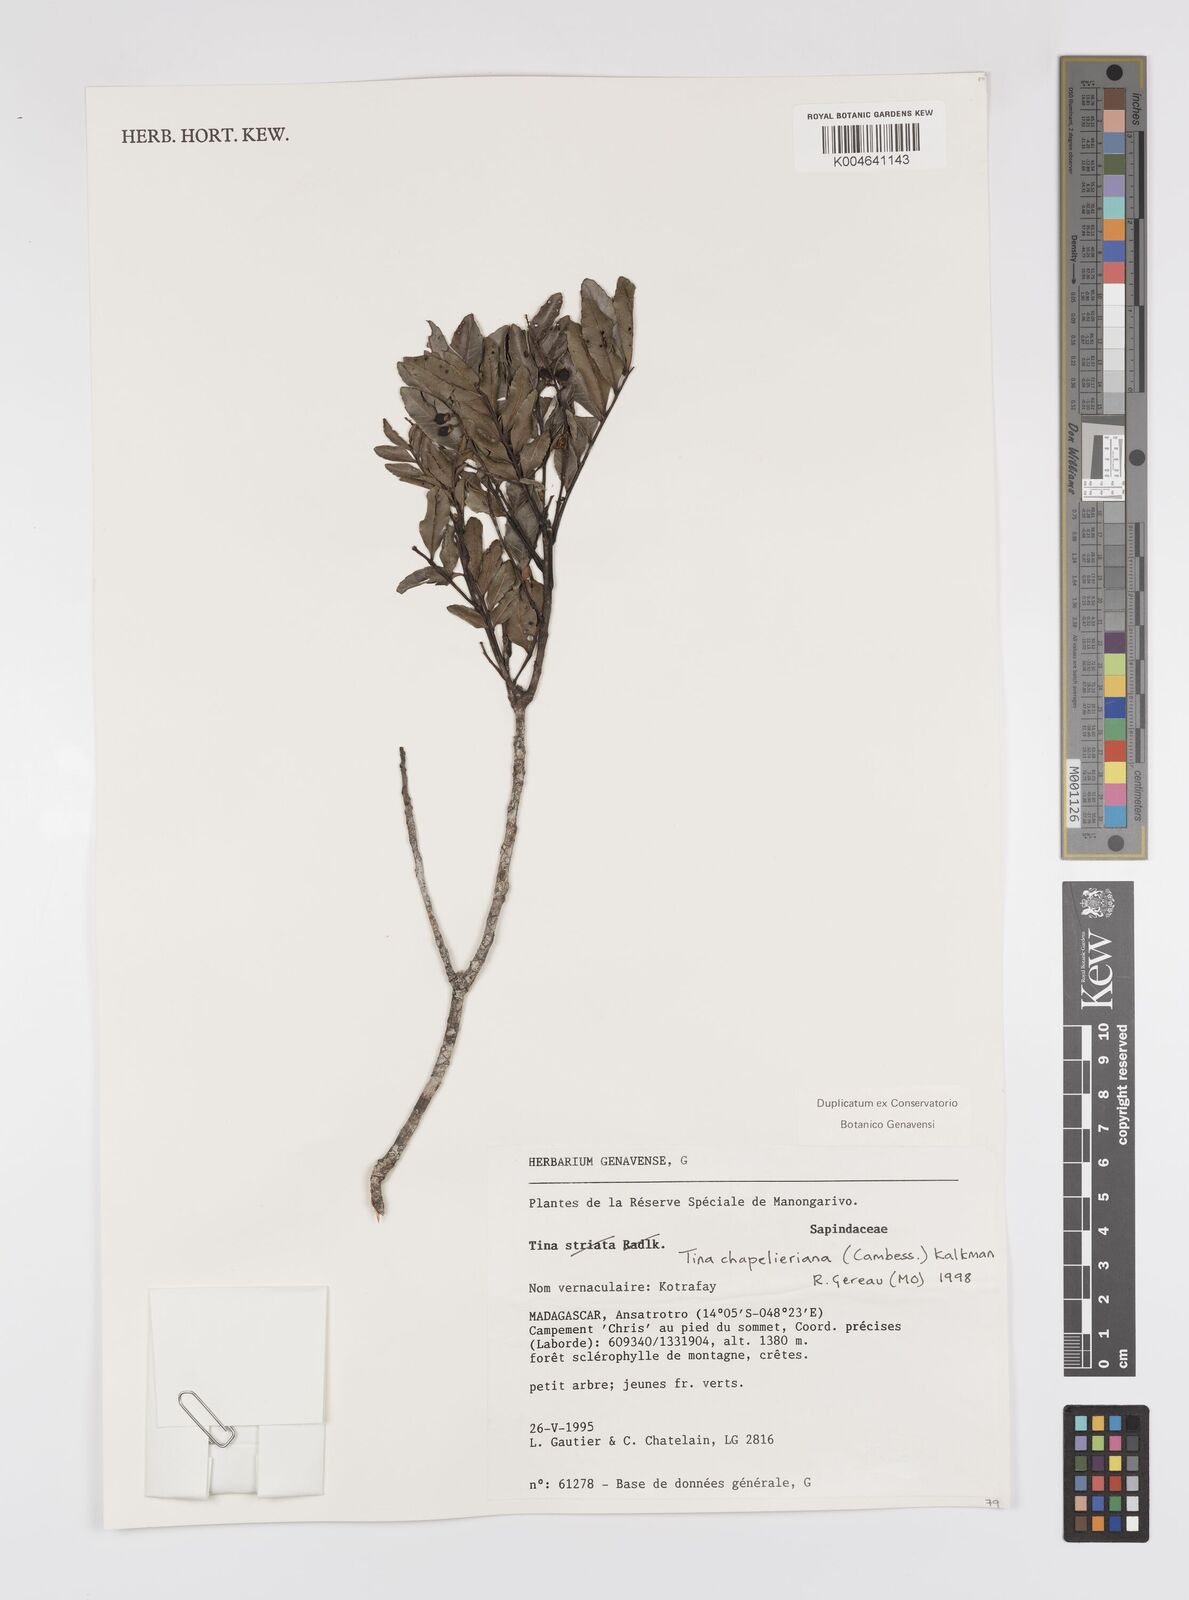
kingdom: Plantae
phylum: Tracheophyta
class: Magnoliopsida
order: Sapindales
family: Sapindaceae
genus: Tina
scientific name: Tina chapelieriana
